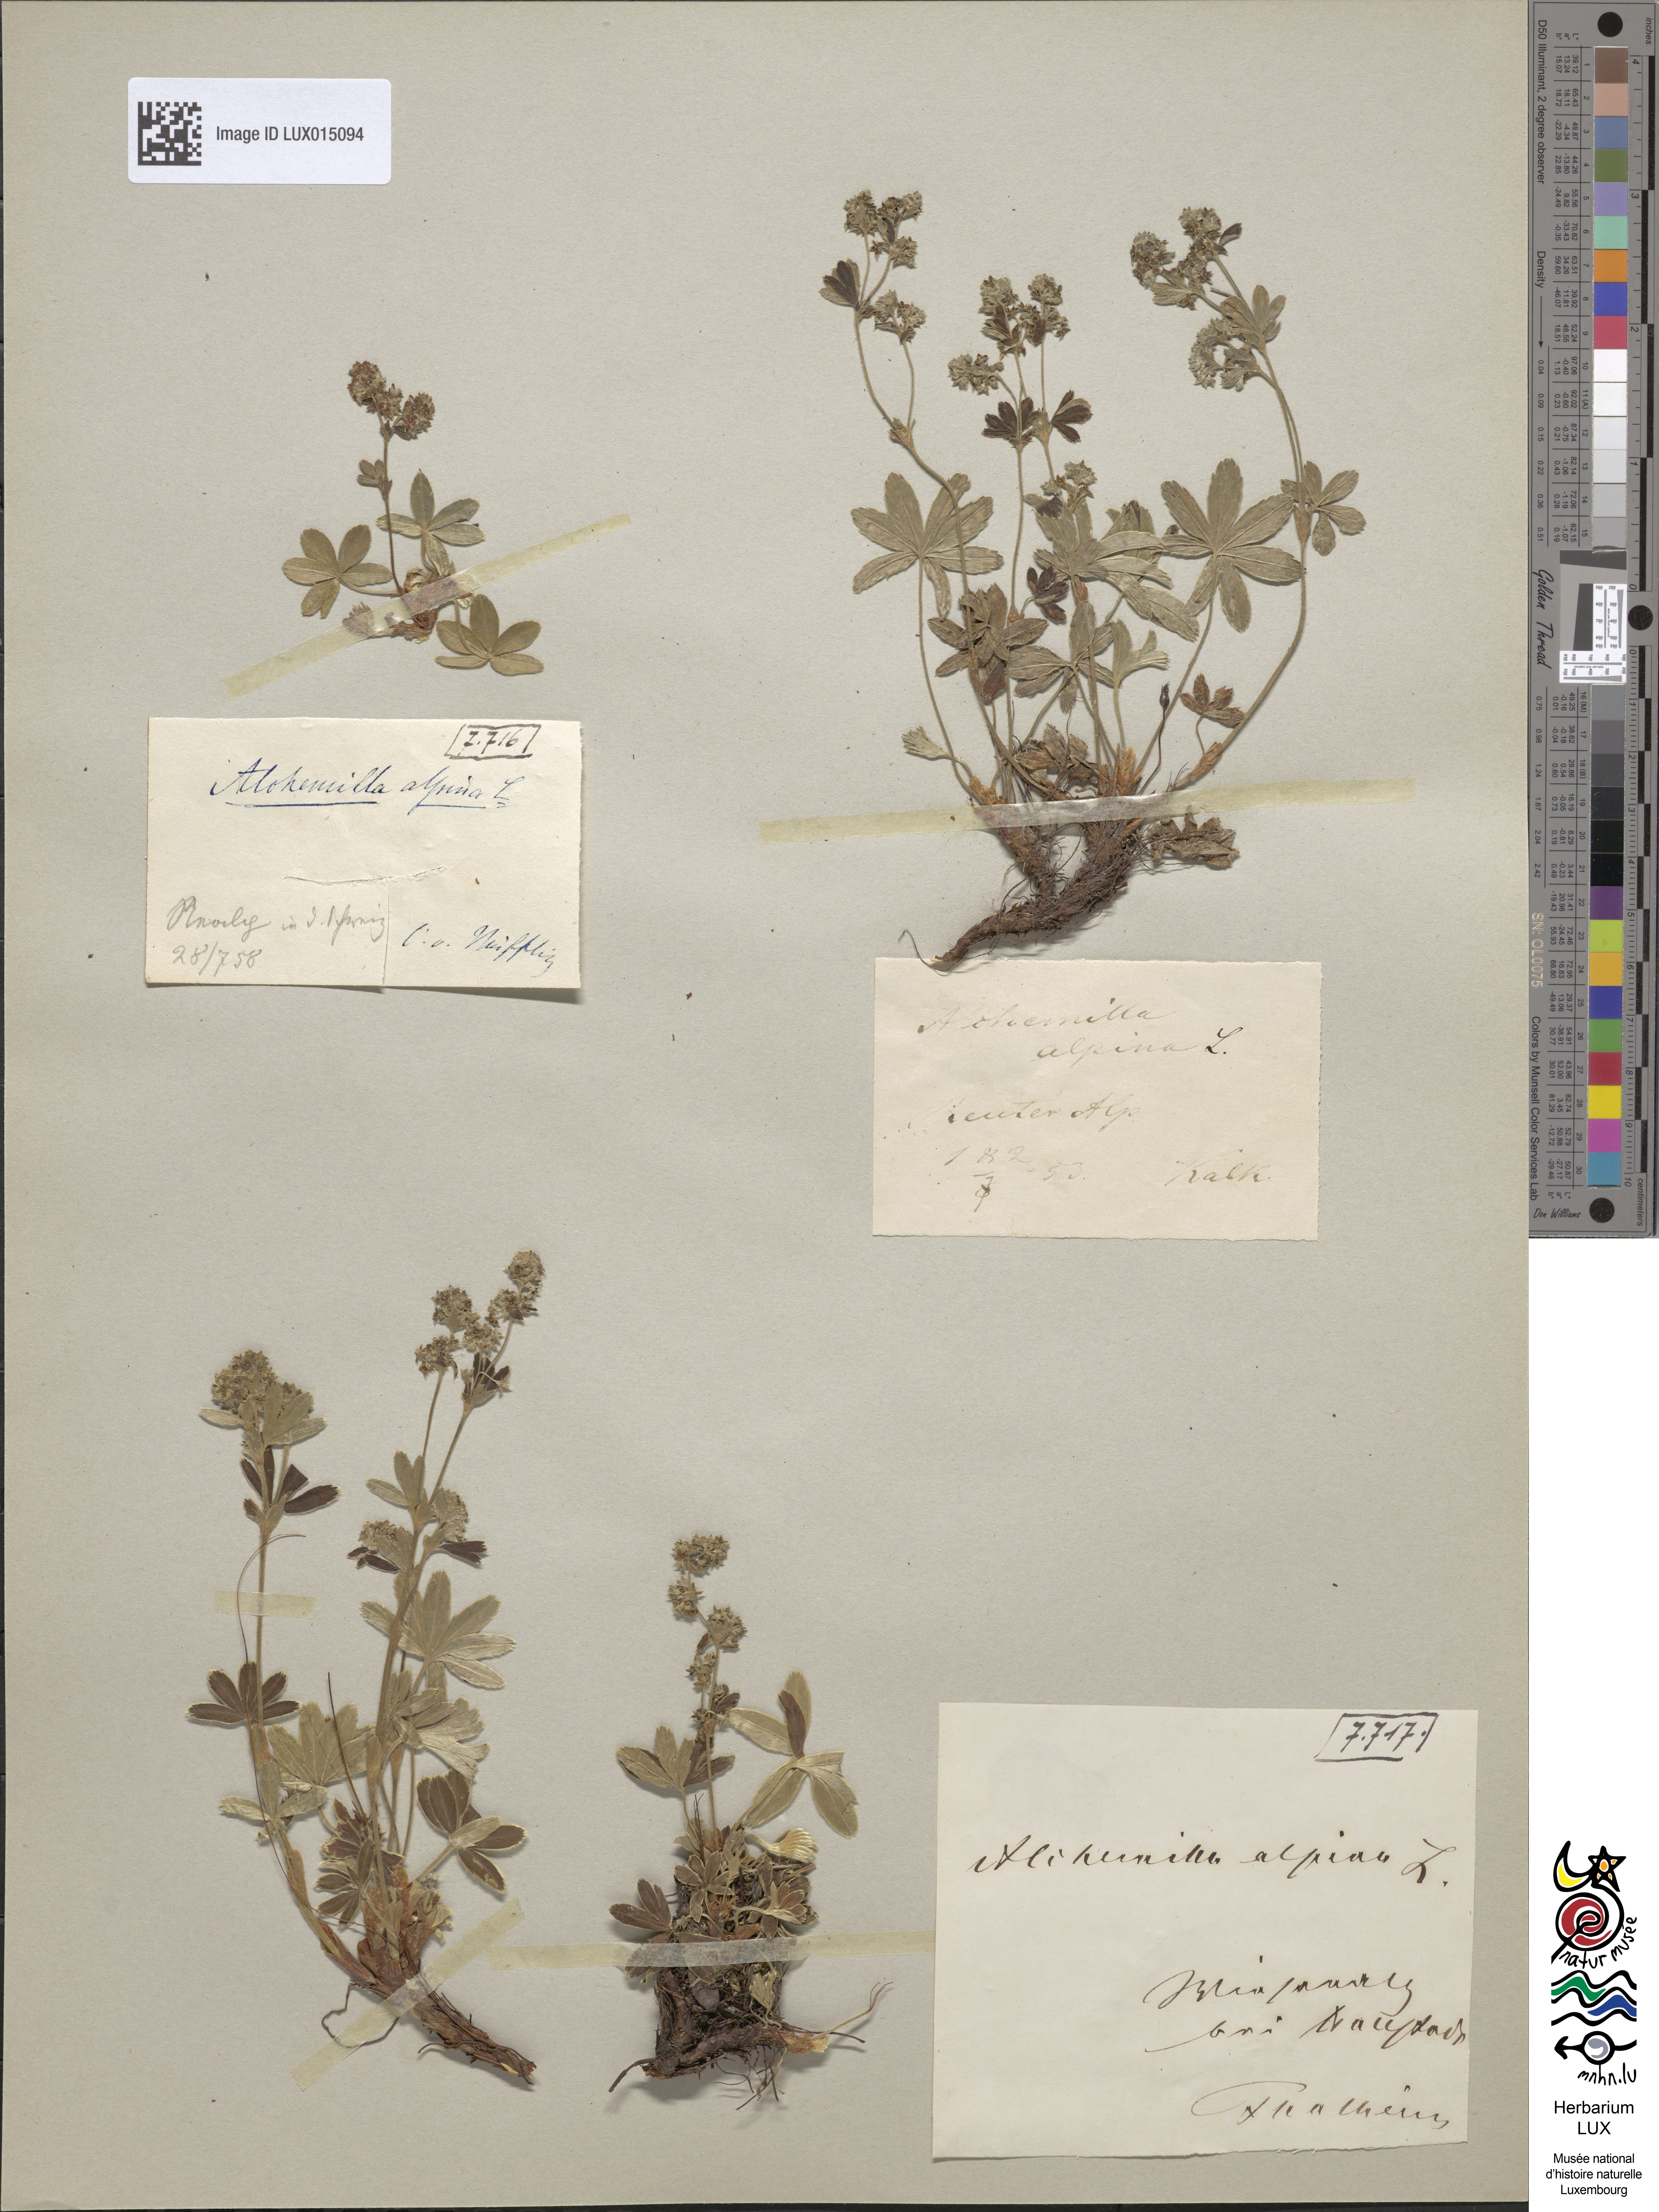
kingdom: Plantae
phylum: Tracheophyta
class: Magnoliopsida
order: Rosales
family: Rosaceae
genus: Alchemilla
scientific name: Alchemilla alpina
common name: Alpine lady's-mantle
